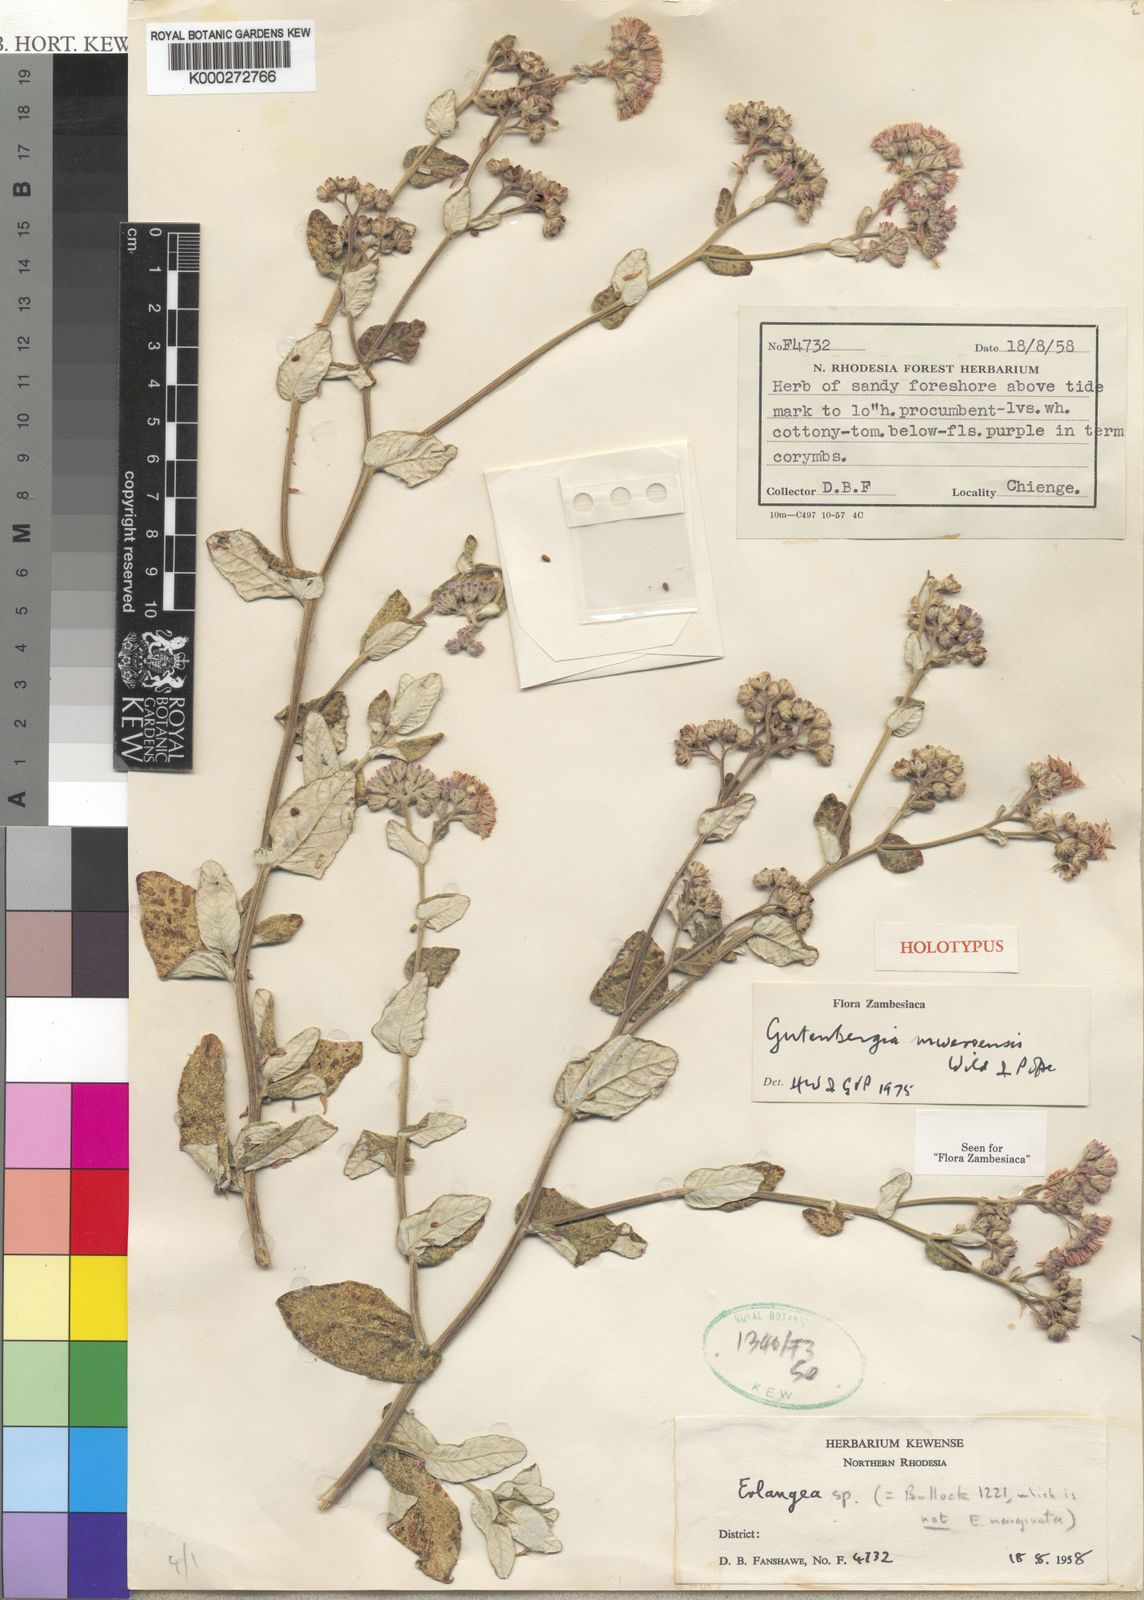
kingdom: Plantae
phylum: Tracheophyta
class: Magnoliopsida
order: Asterales
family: Asteraceae
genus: Gutenbergia
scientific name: Gutenbergia mweroensis
